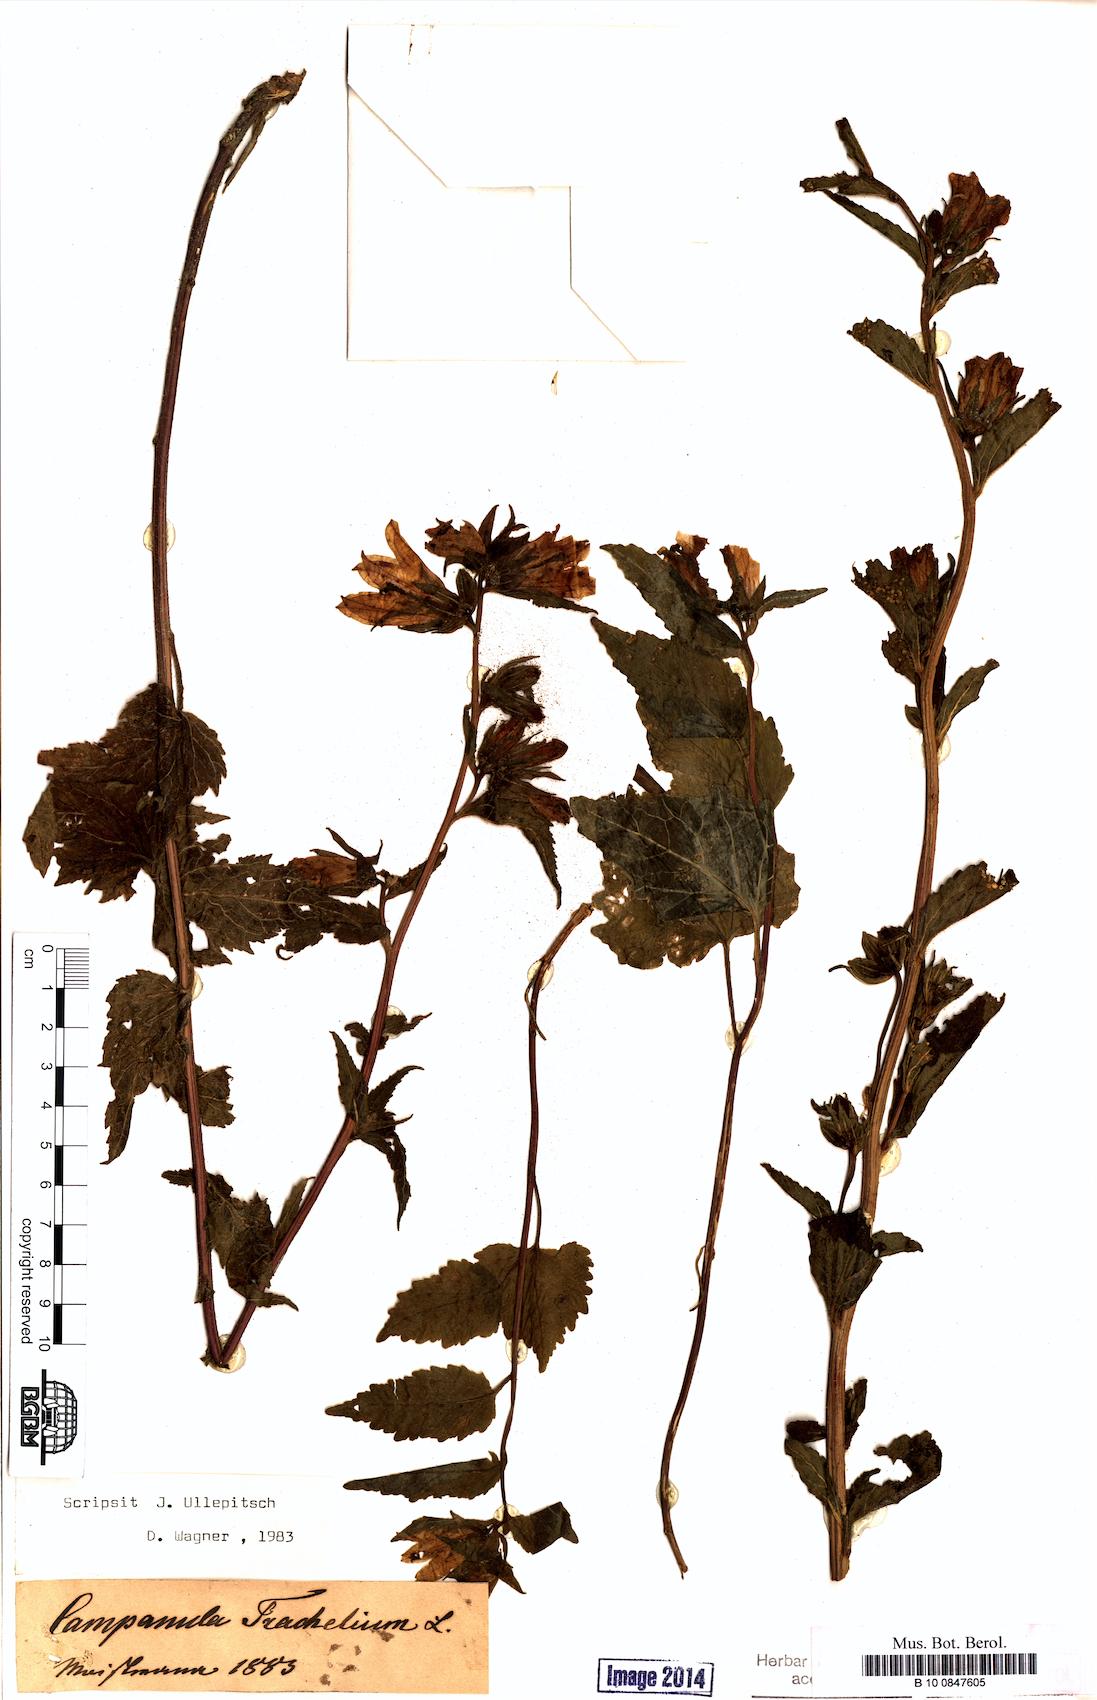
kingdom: Plantae
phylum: Tracheophyta
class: Magnoliopsida
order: Asterales
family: Campanulaceae
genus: Campanula
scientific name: Campanula trachelium
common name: Nettle-leaved bellflower
